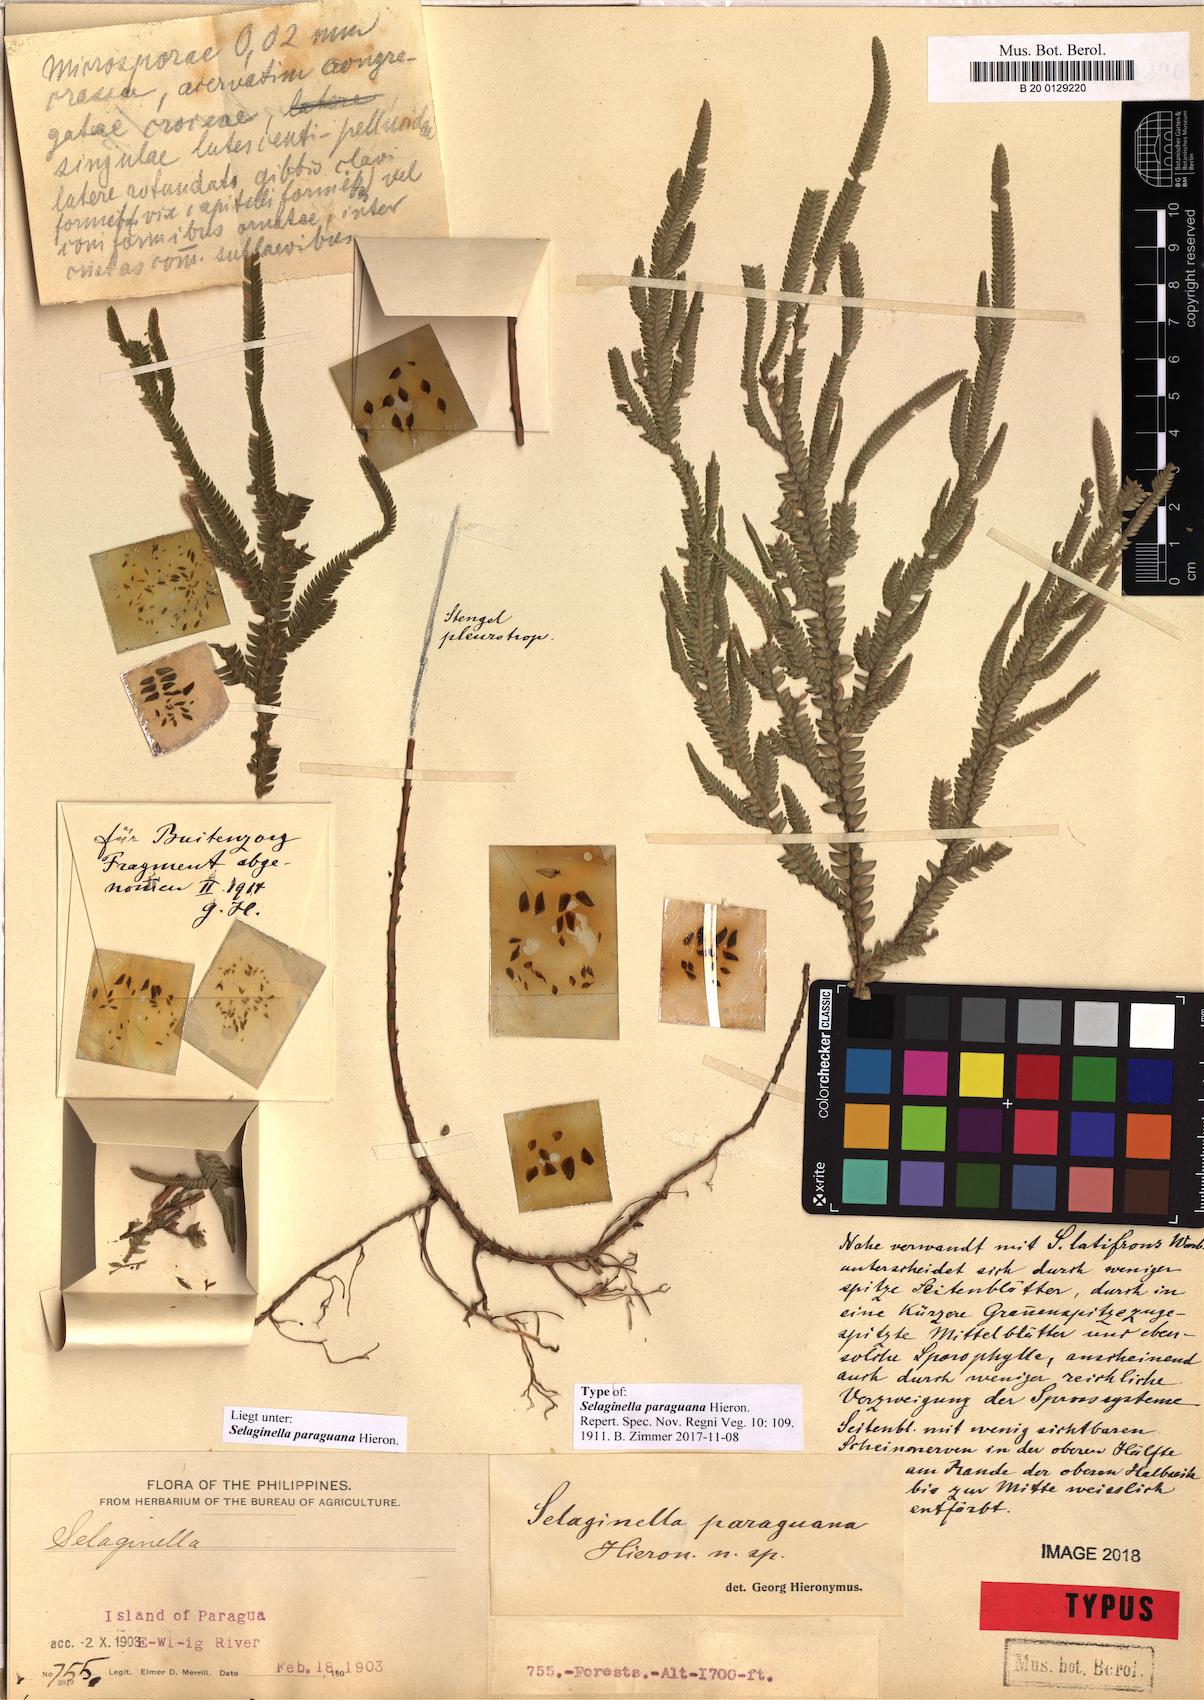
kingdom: Plantae
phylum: Tracheophyta
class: Lycopodiopsida
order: Selaginellales
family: Selaginellaceae
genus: Selaginella
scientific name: Selaginella jagorii
